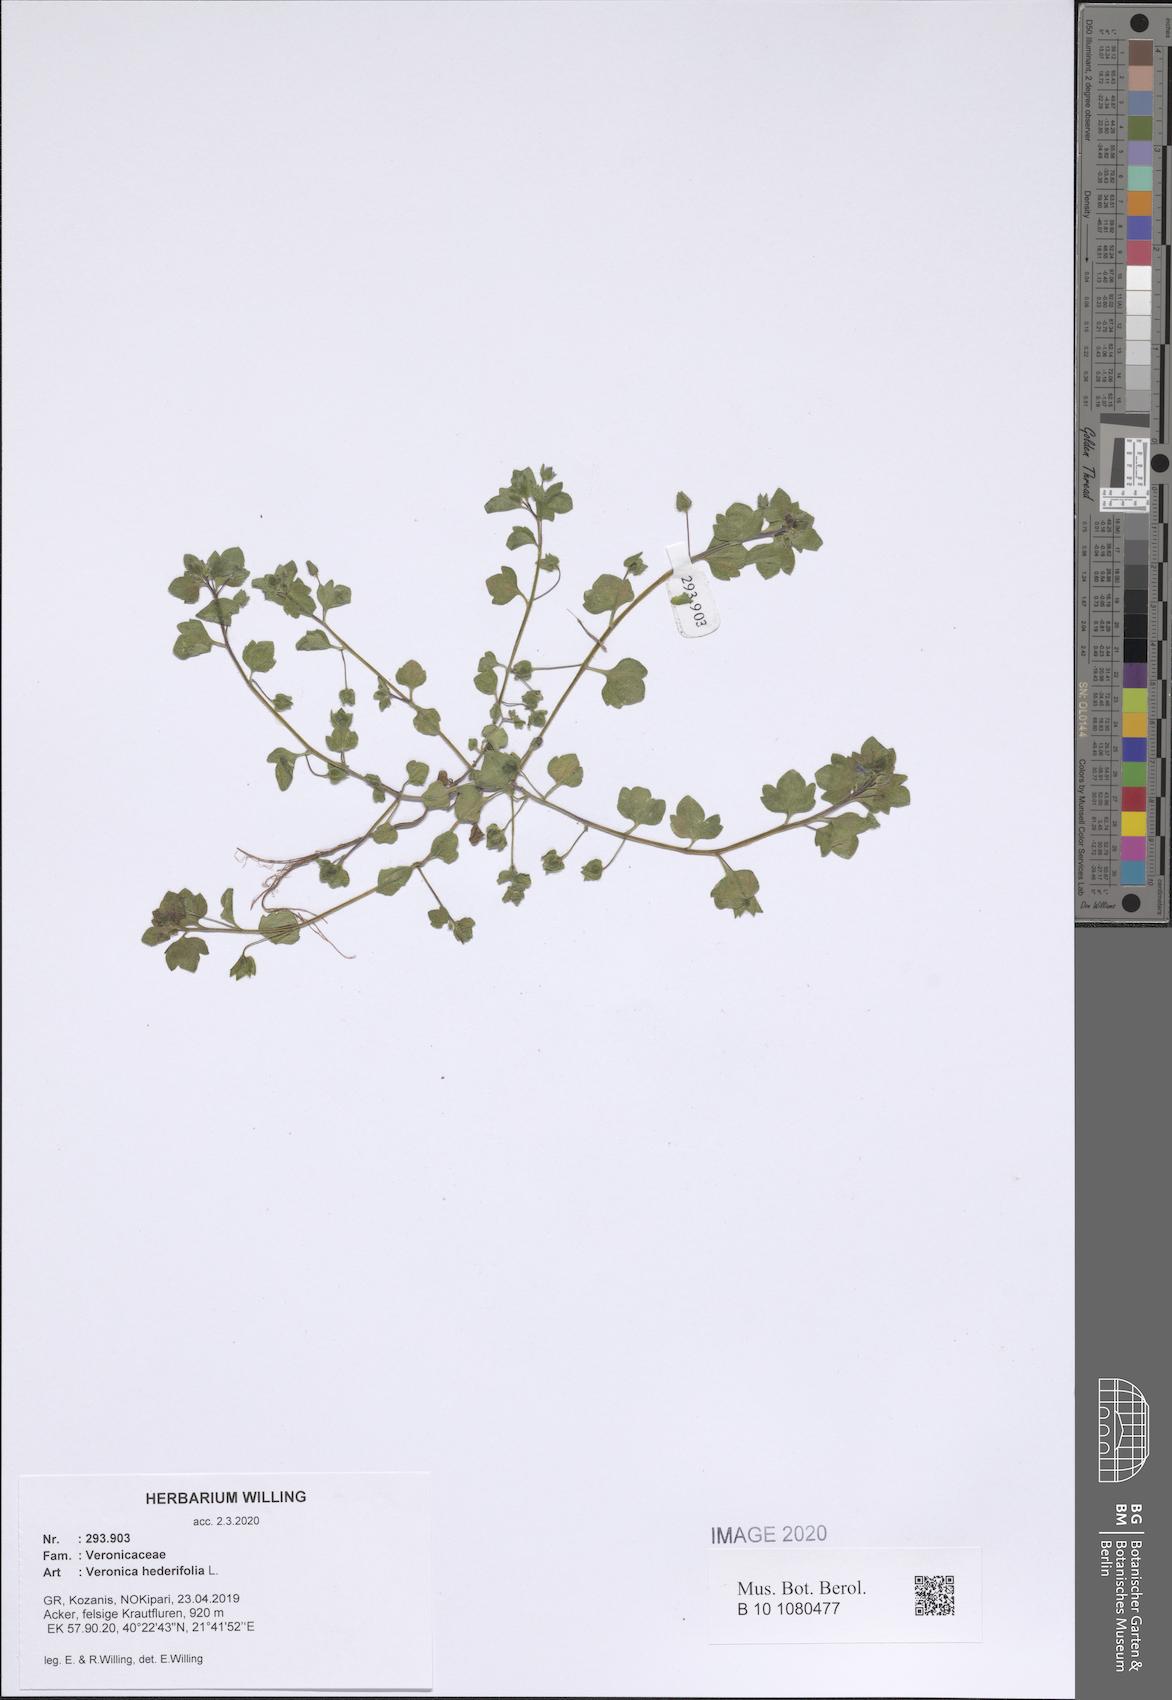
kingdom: Plantae
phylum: Tracheophyta
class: Magnoliopsida
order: Lamiales
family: Plantaginaceae
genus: Veronica
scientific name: Veronica hederifolia
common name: Ivy-leaved speedwell
